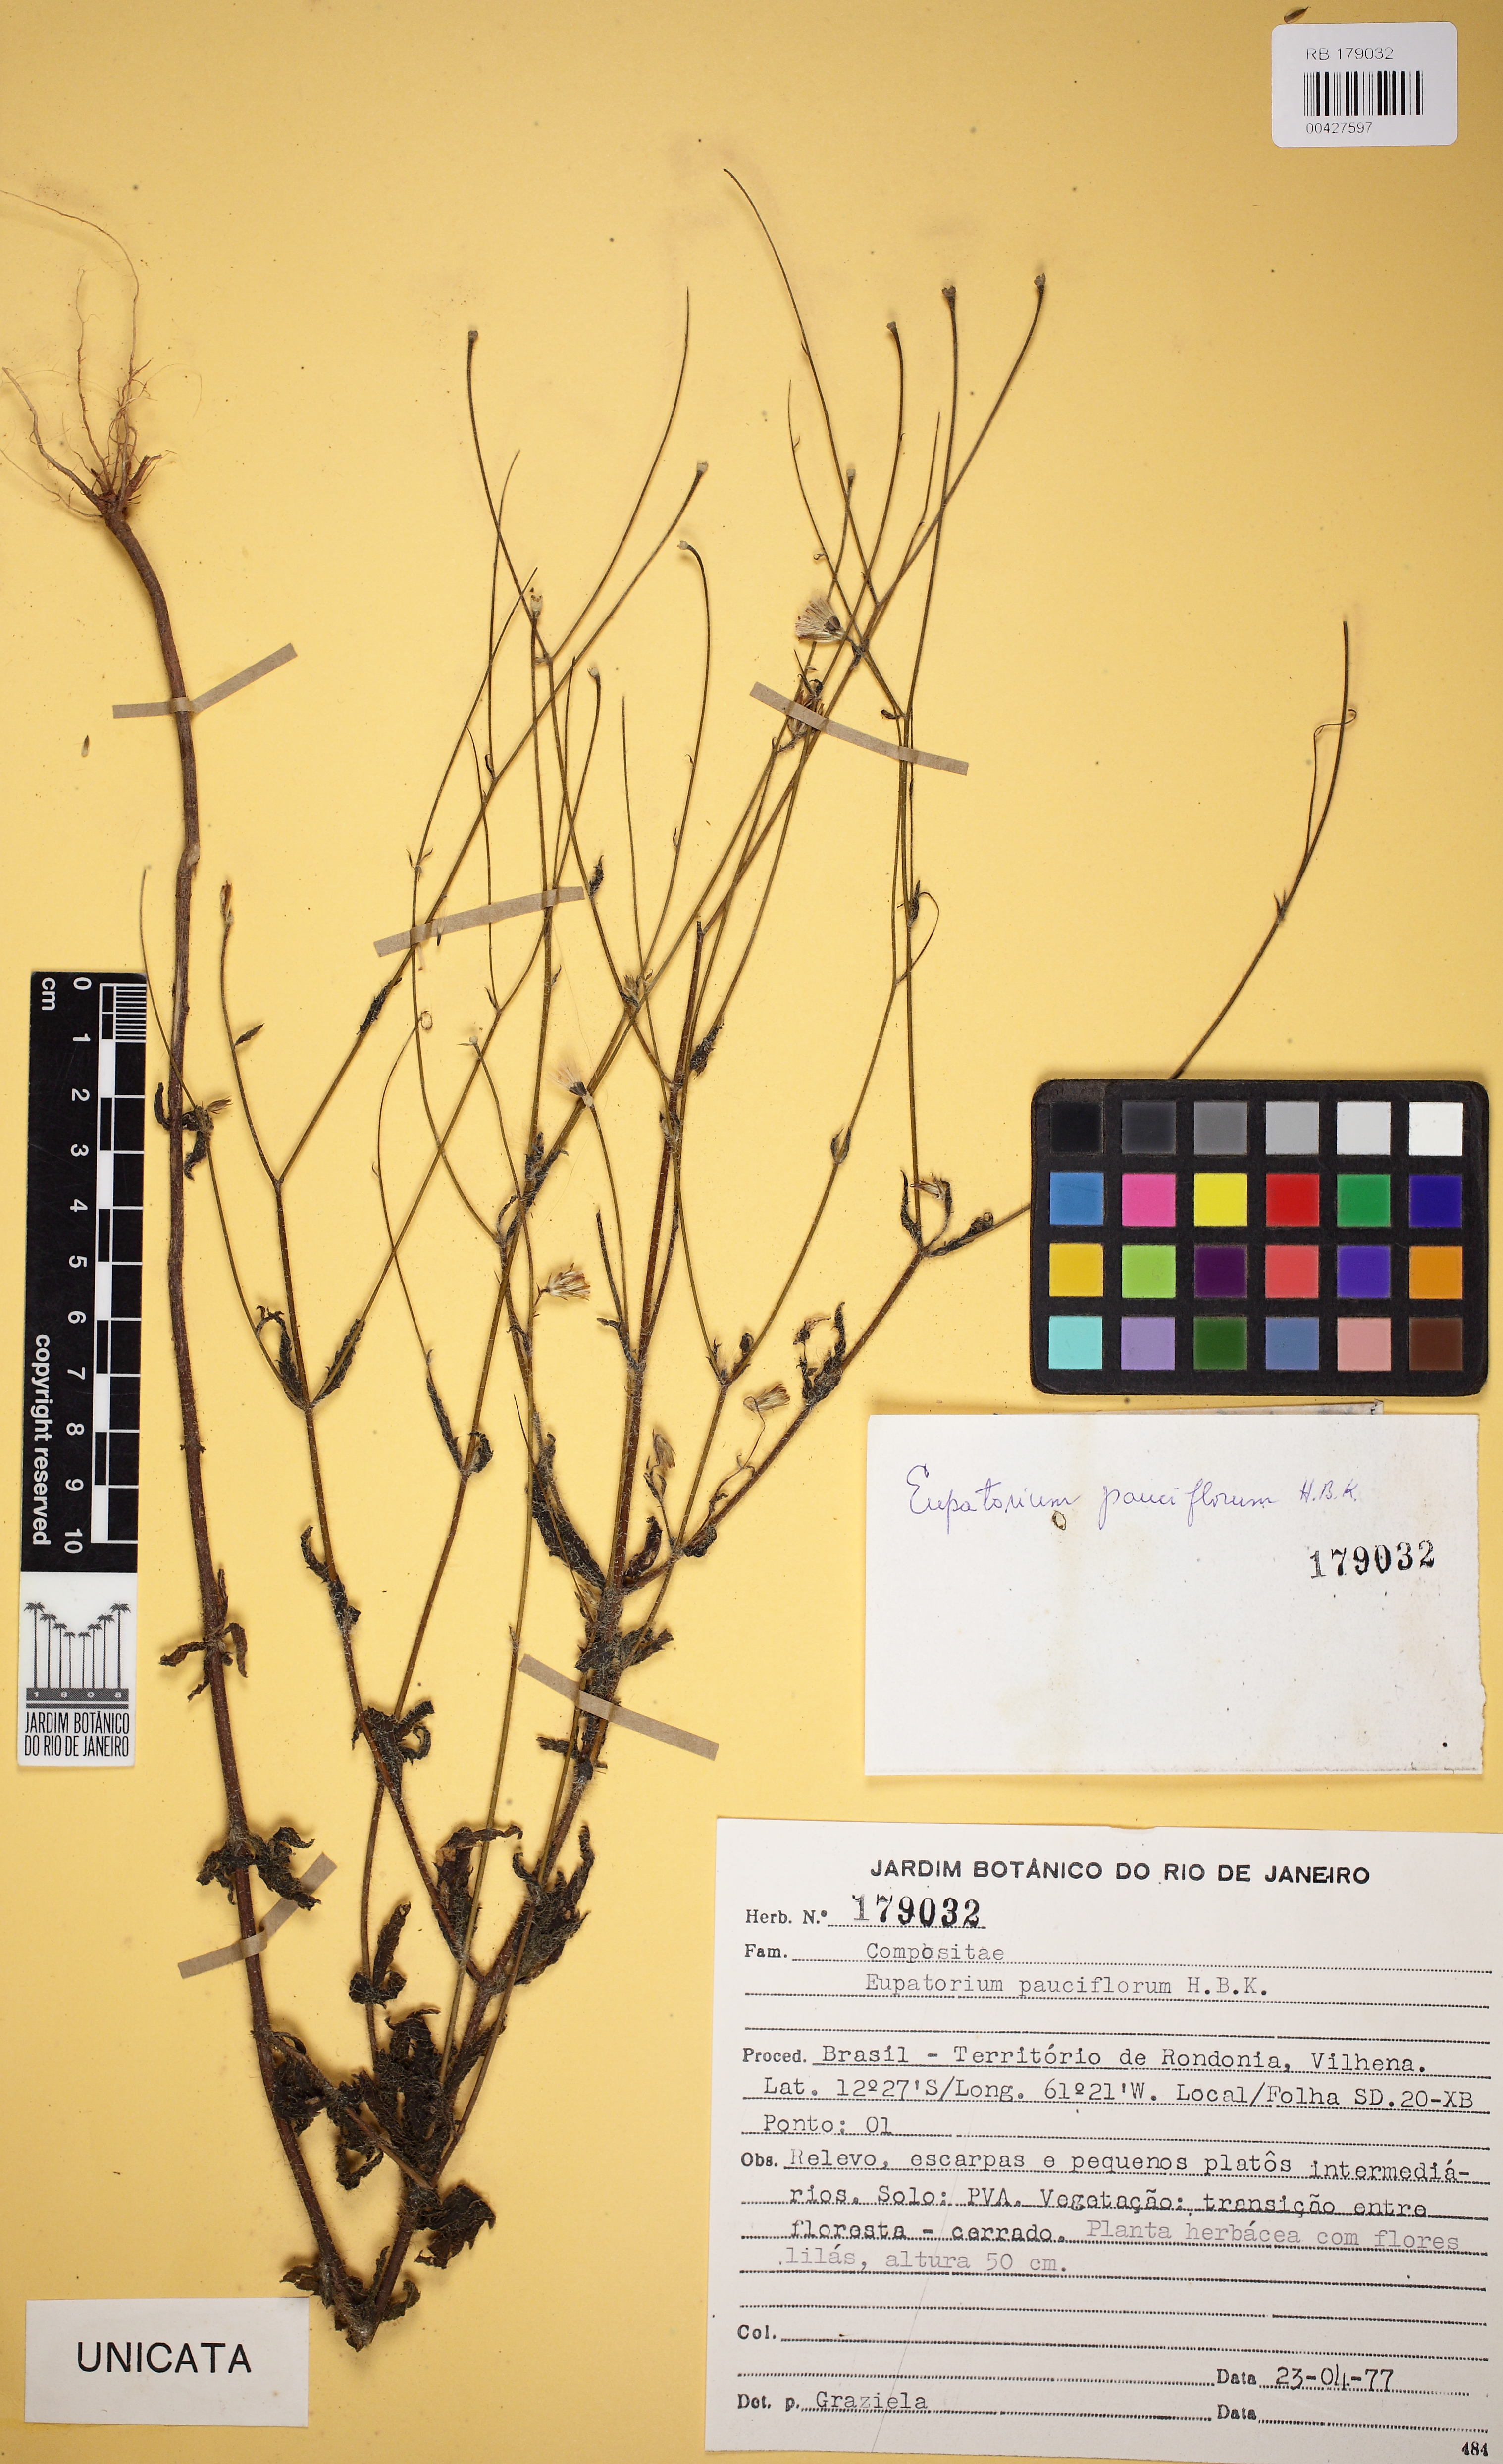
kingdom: Plantae
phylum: Tracheophyta
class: Magnoliopsida
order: Asterales
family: Asteraceae
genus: Praxelis
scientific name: Praxelis diffusa
